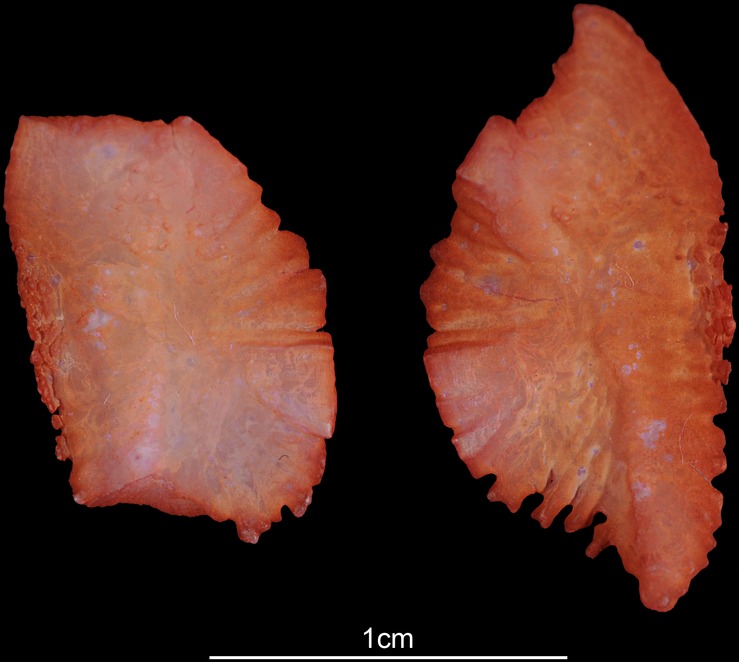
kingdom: Animalia
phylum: Chordata
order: Perciformes
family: Sparidae
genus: Dentex
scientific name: Dentex dentex
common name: Dentex
